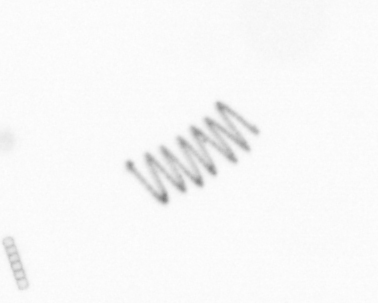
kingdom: Chromista
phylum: Ochrophyta
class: Bacillariophyceae
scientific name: Bacillariophyceae
